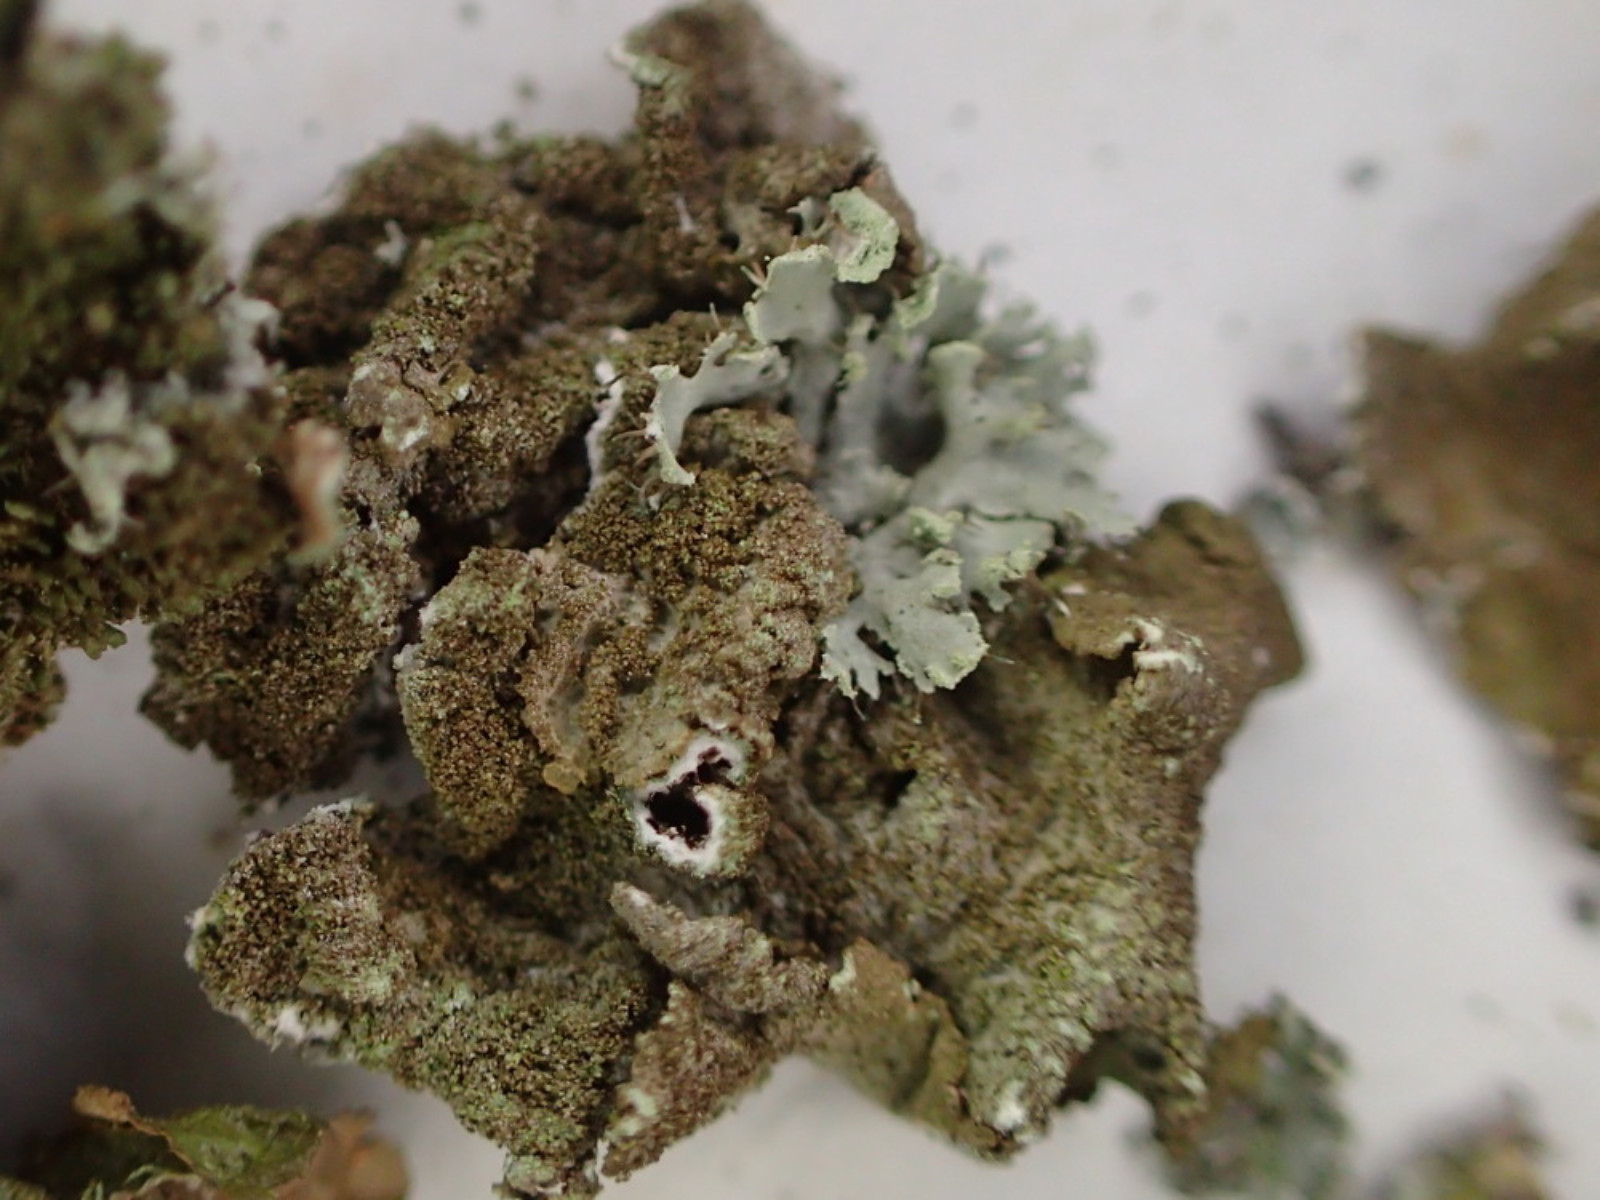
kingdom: Fungi
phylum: Ascomycota
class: Lecanoromycetes
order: Lecanorales
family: Parmeliaceae
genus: Melanelixia
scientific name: Melanelixia subaurifera
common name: guldpudret skållav
